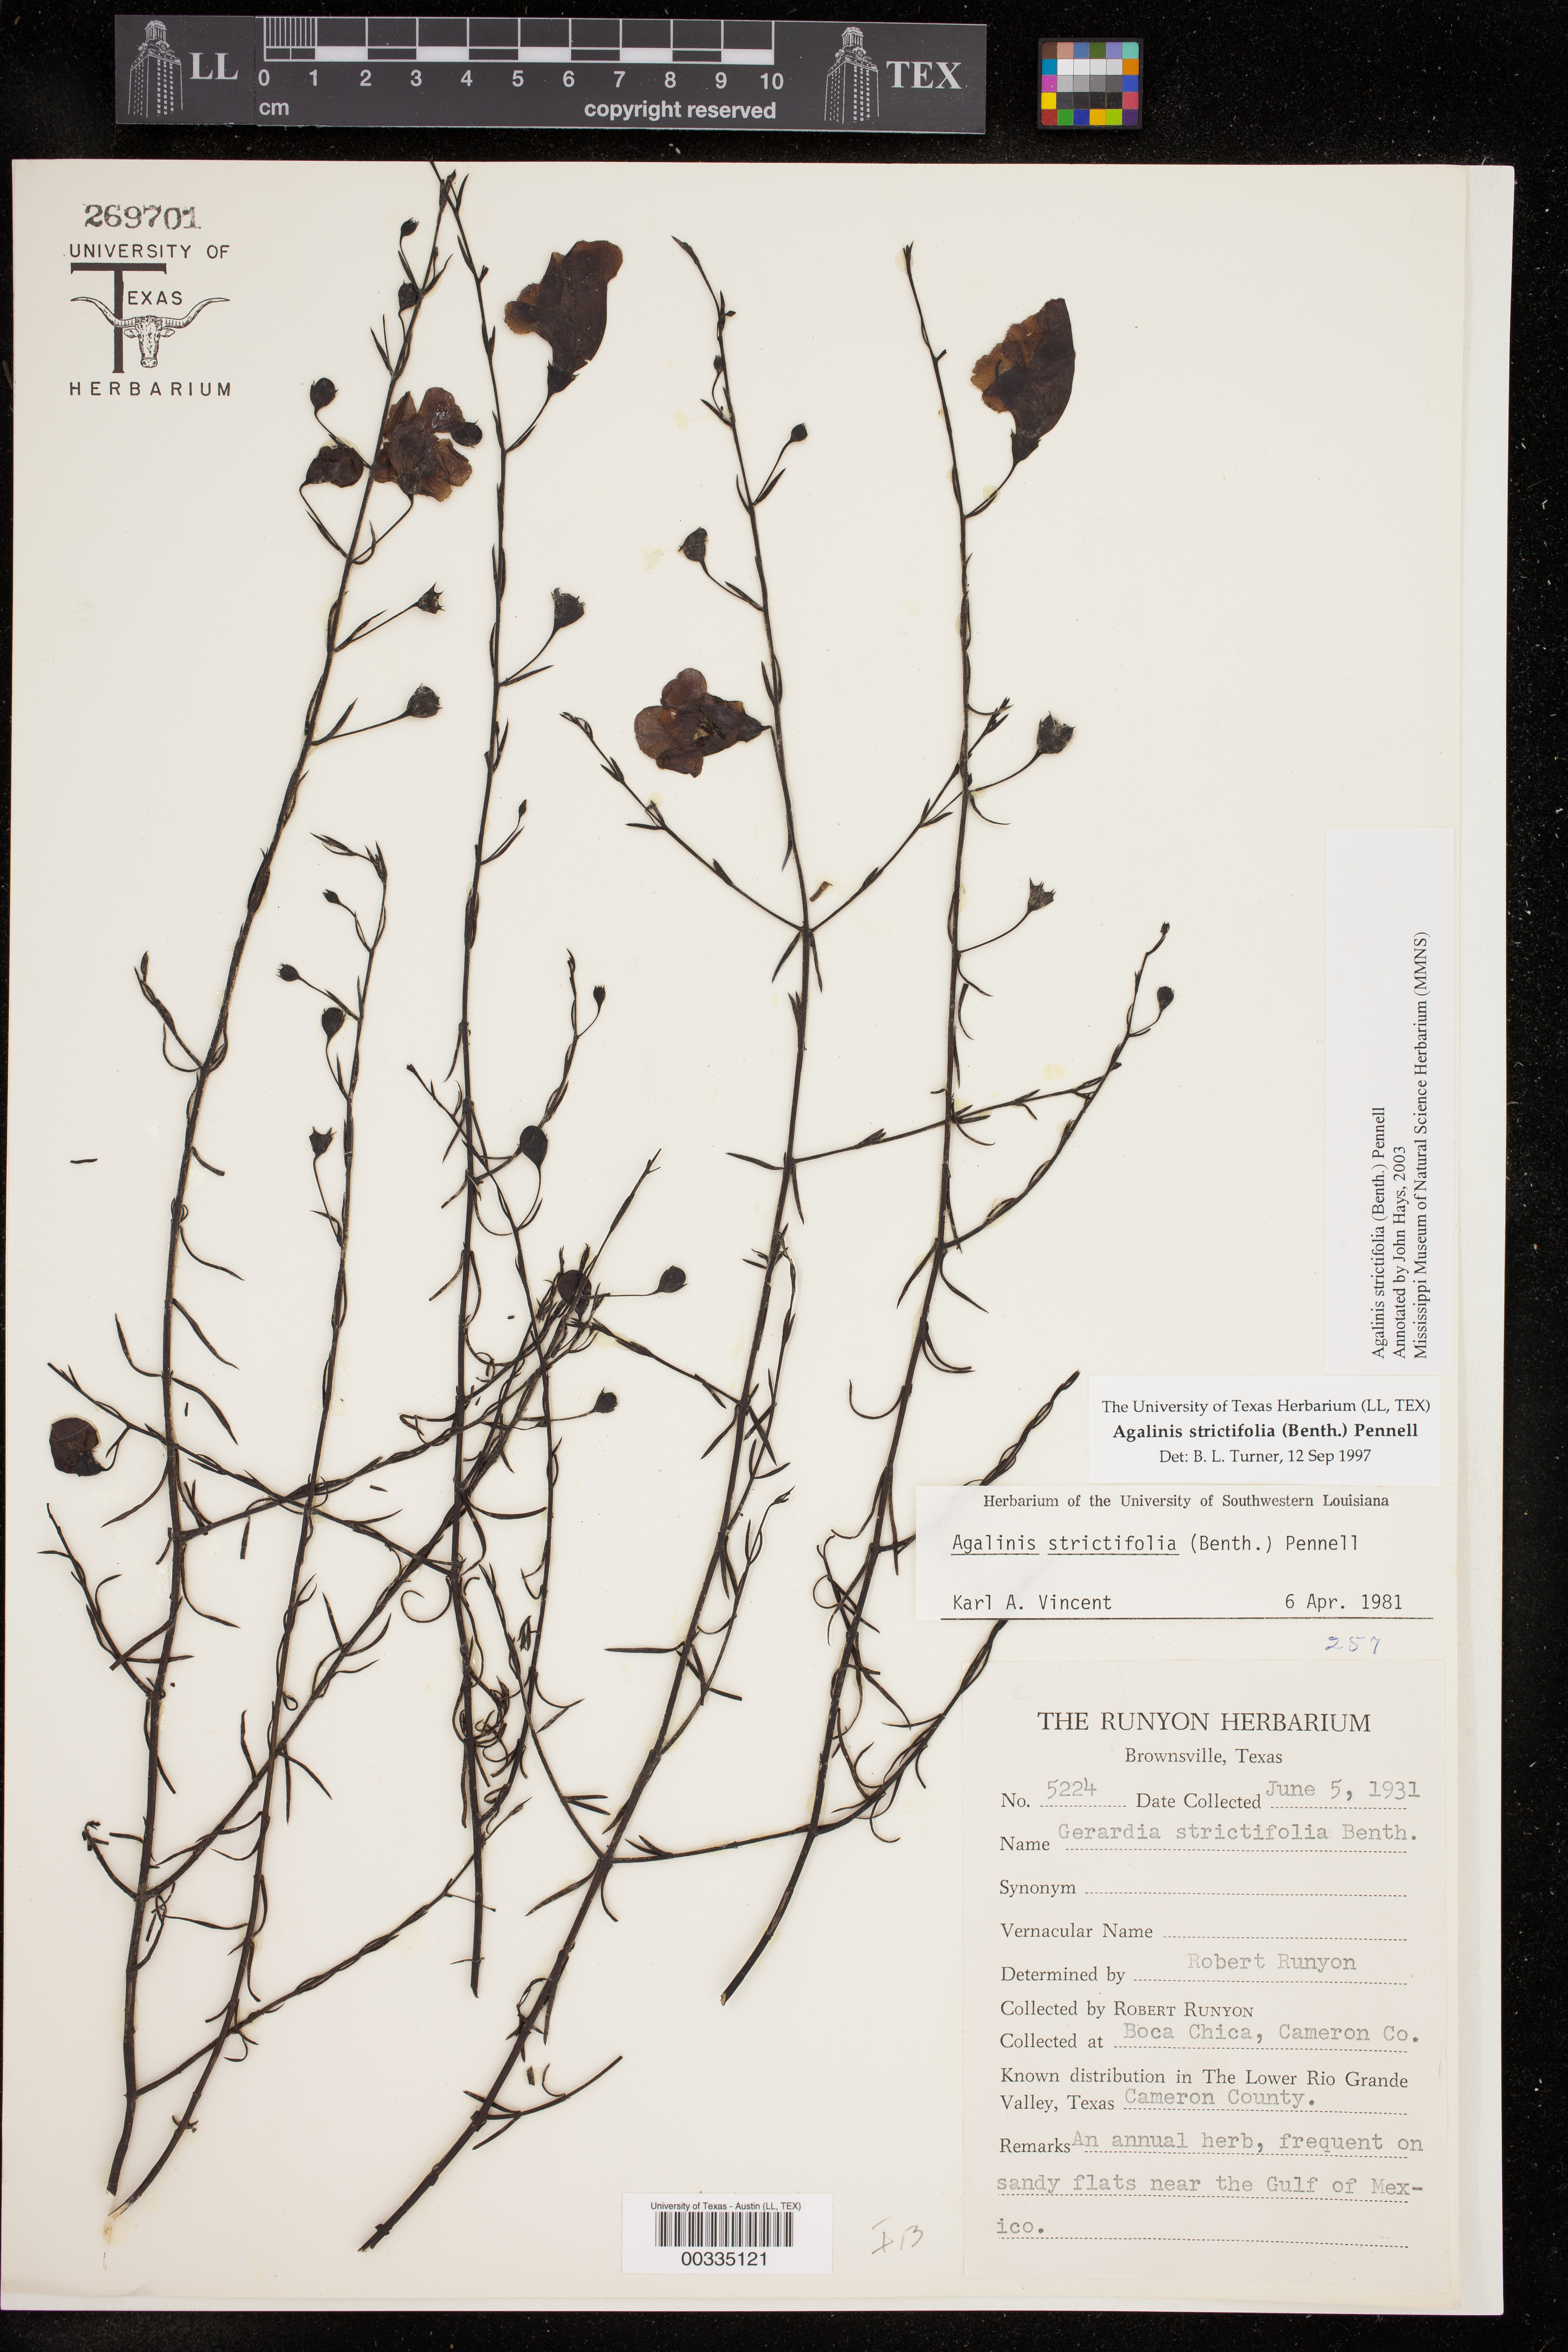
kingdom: Plantae
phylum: Tracheophyta
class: Magnoliopsida
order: Lamiales
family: Orobanchaceae
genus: Agalinis
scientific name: Agalinis strictifolia
